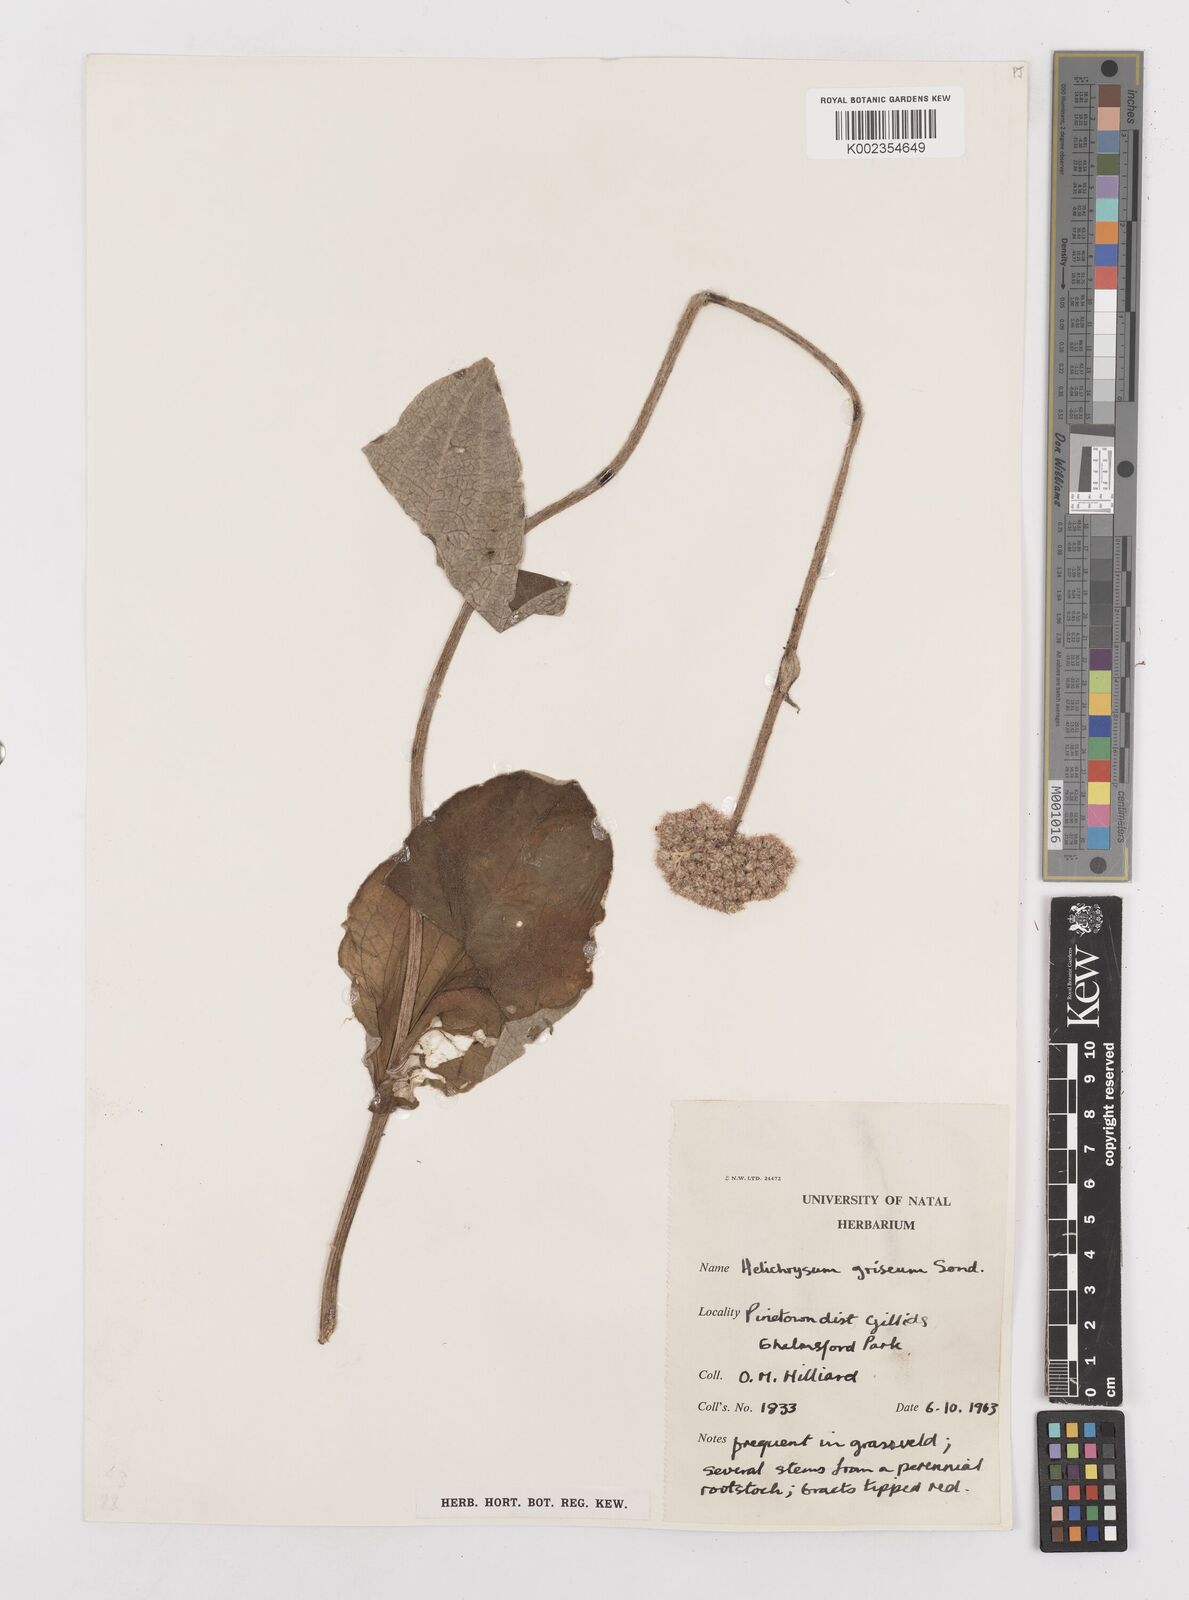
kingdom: Plantae
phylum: Tracheophyta
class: Magnoliopsida
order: Asterales
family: Asteraceae
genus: Helichrysum
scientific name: Helichrysum griseum
